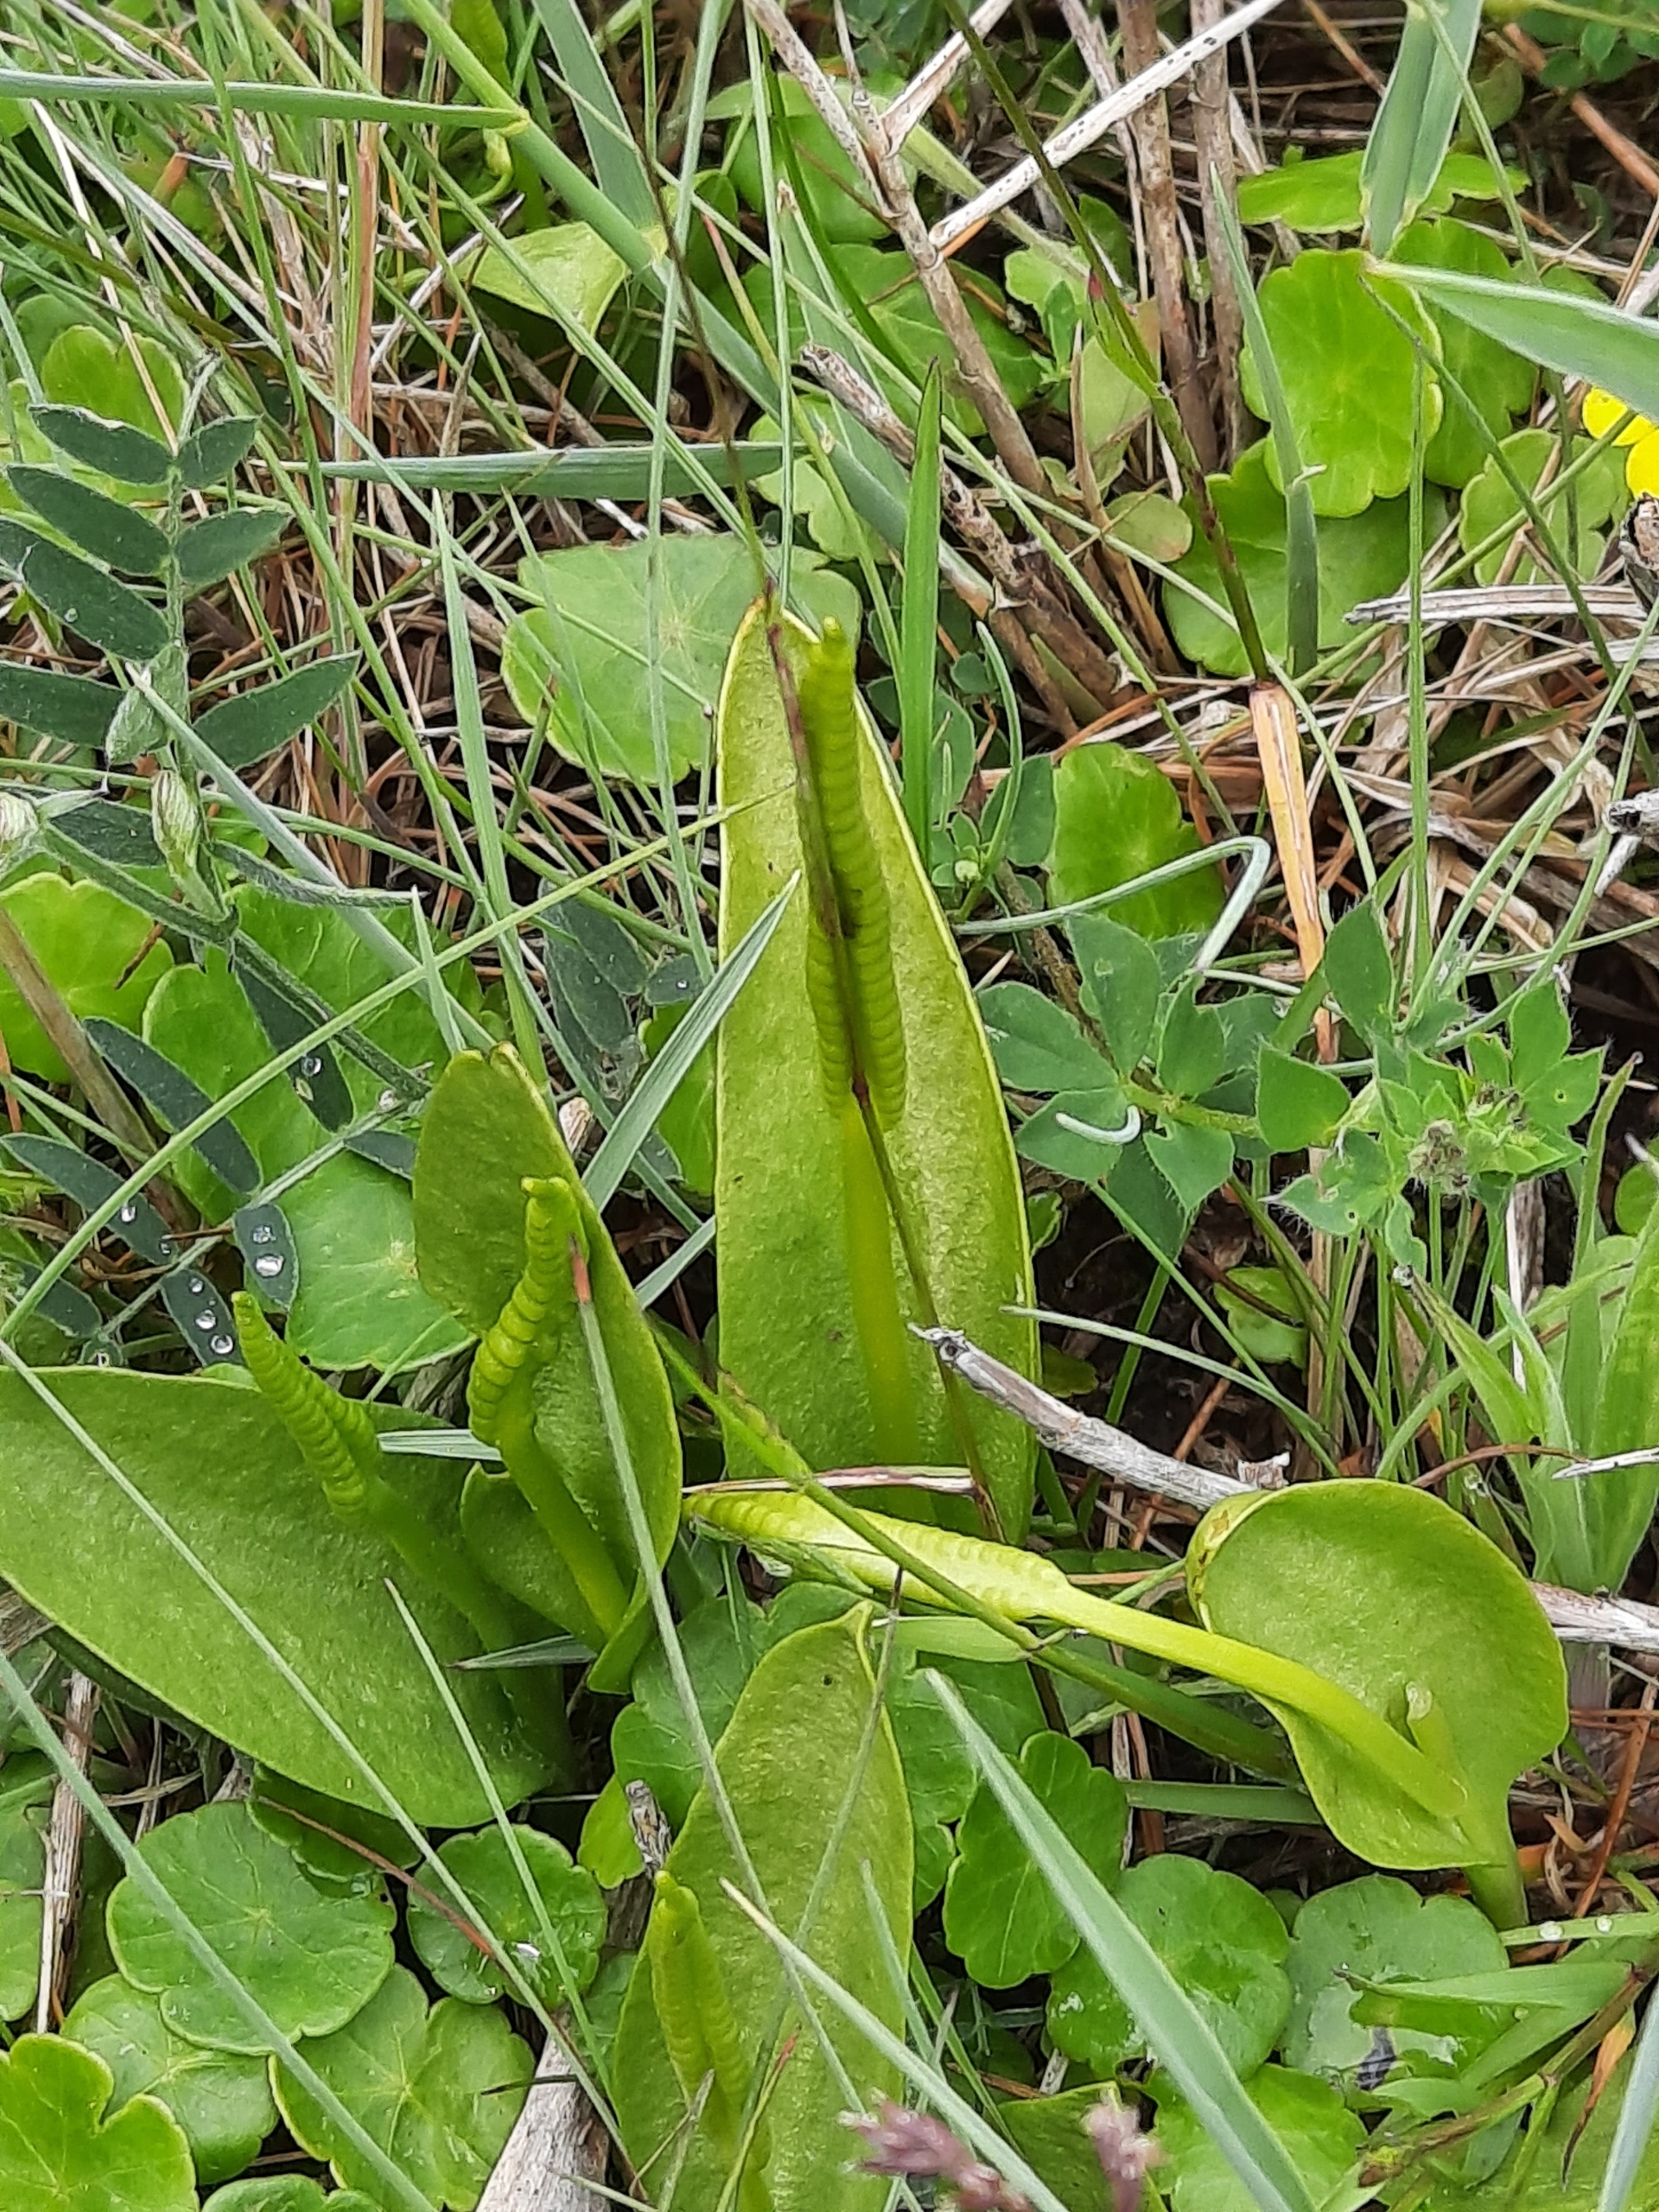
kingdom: Plantae
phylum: Tracheophyta
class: Polypodiopsida
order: Ophioglossales
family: Ophioglossaceae
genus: Ophioglossum
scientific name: Ophioglossum vulgatum
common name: Slangetunge
